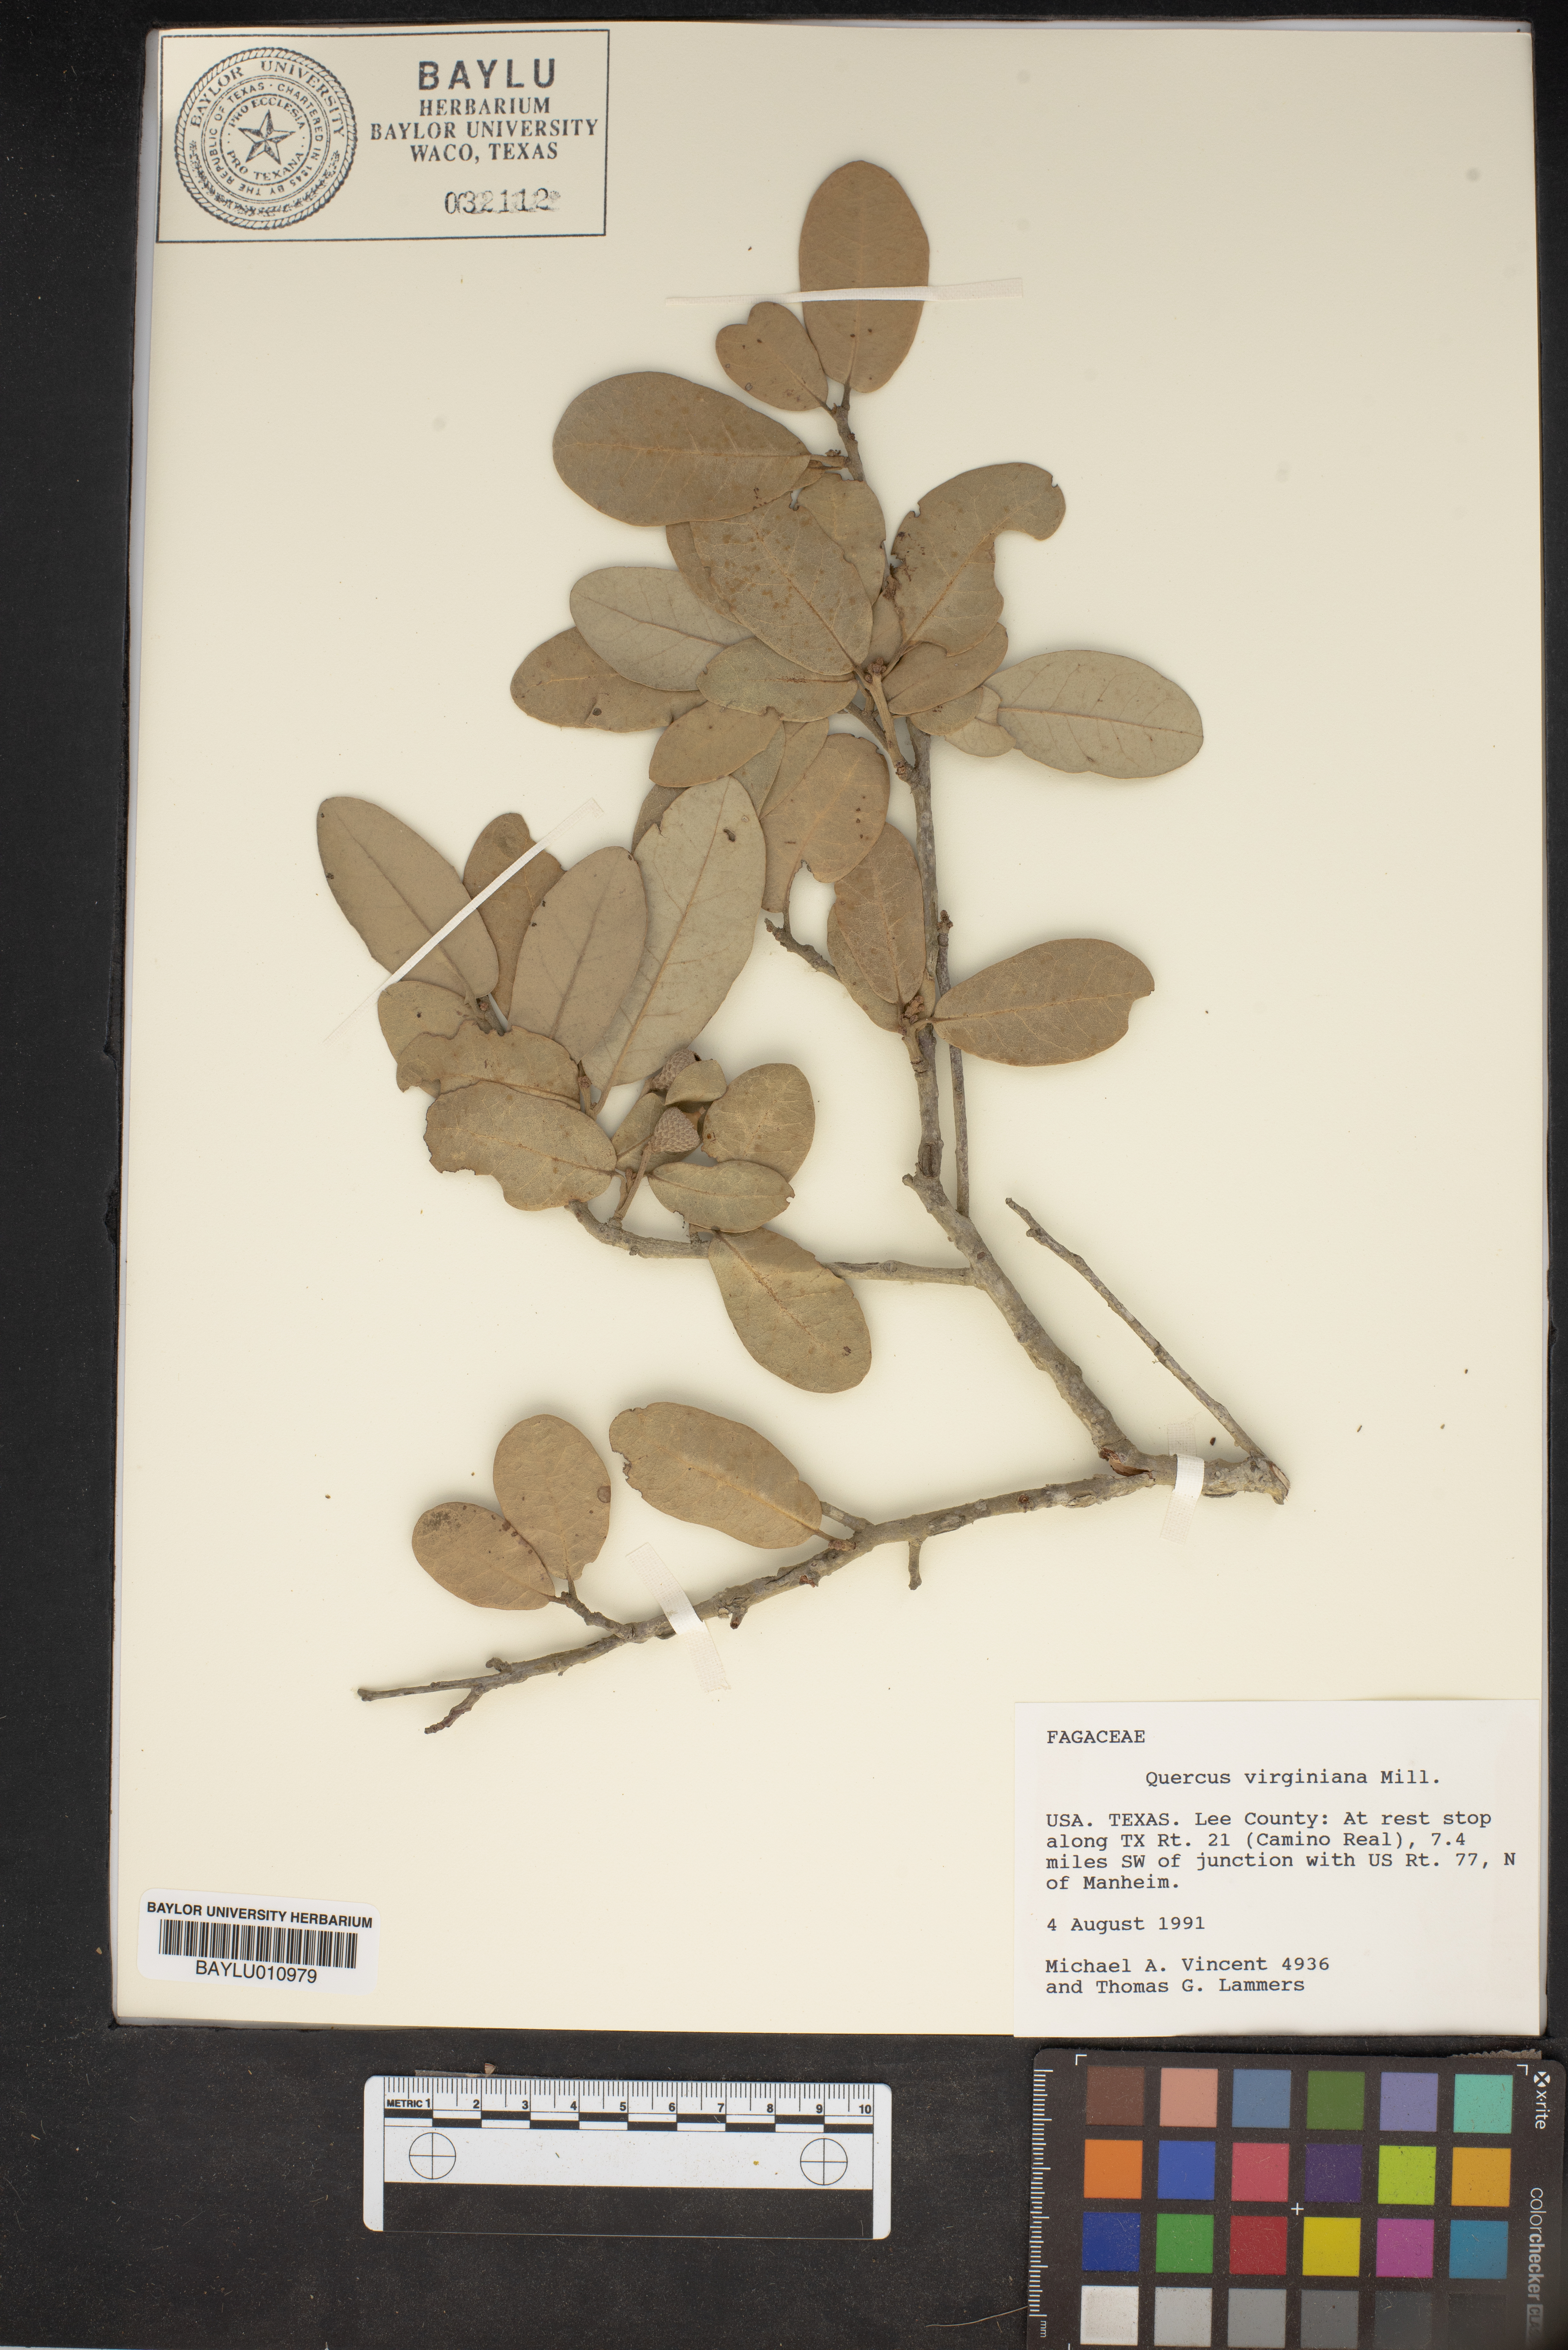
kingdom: Plantae
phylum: Tracheophyta
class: Magnoliopsida
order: Fagales
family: Fagaceae
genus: Quercus
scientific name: Quercus virginiana
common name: Southern live oak
